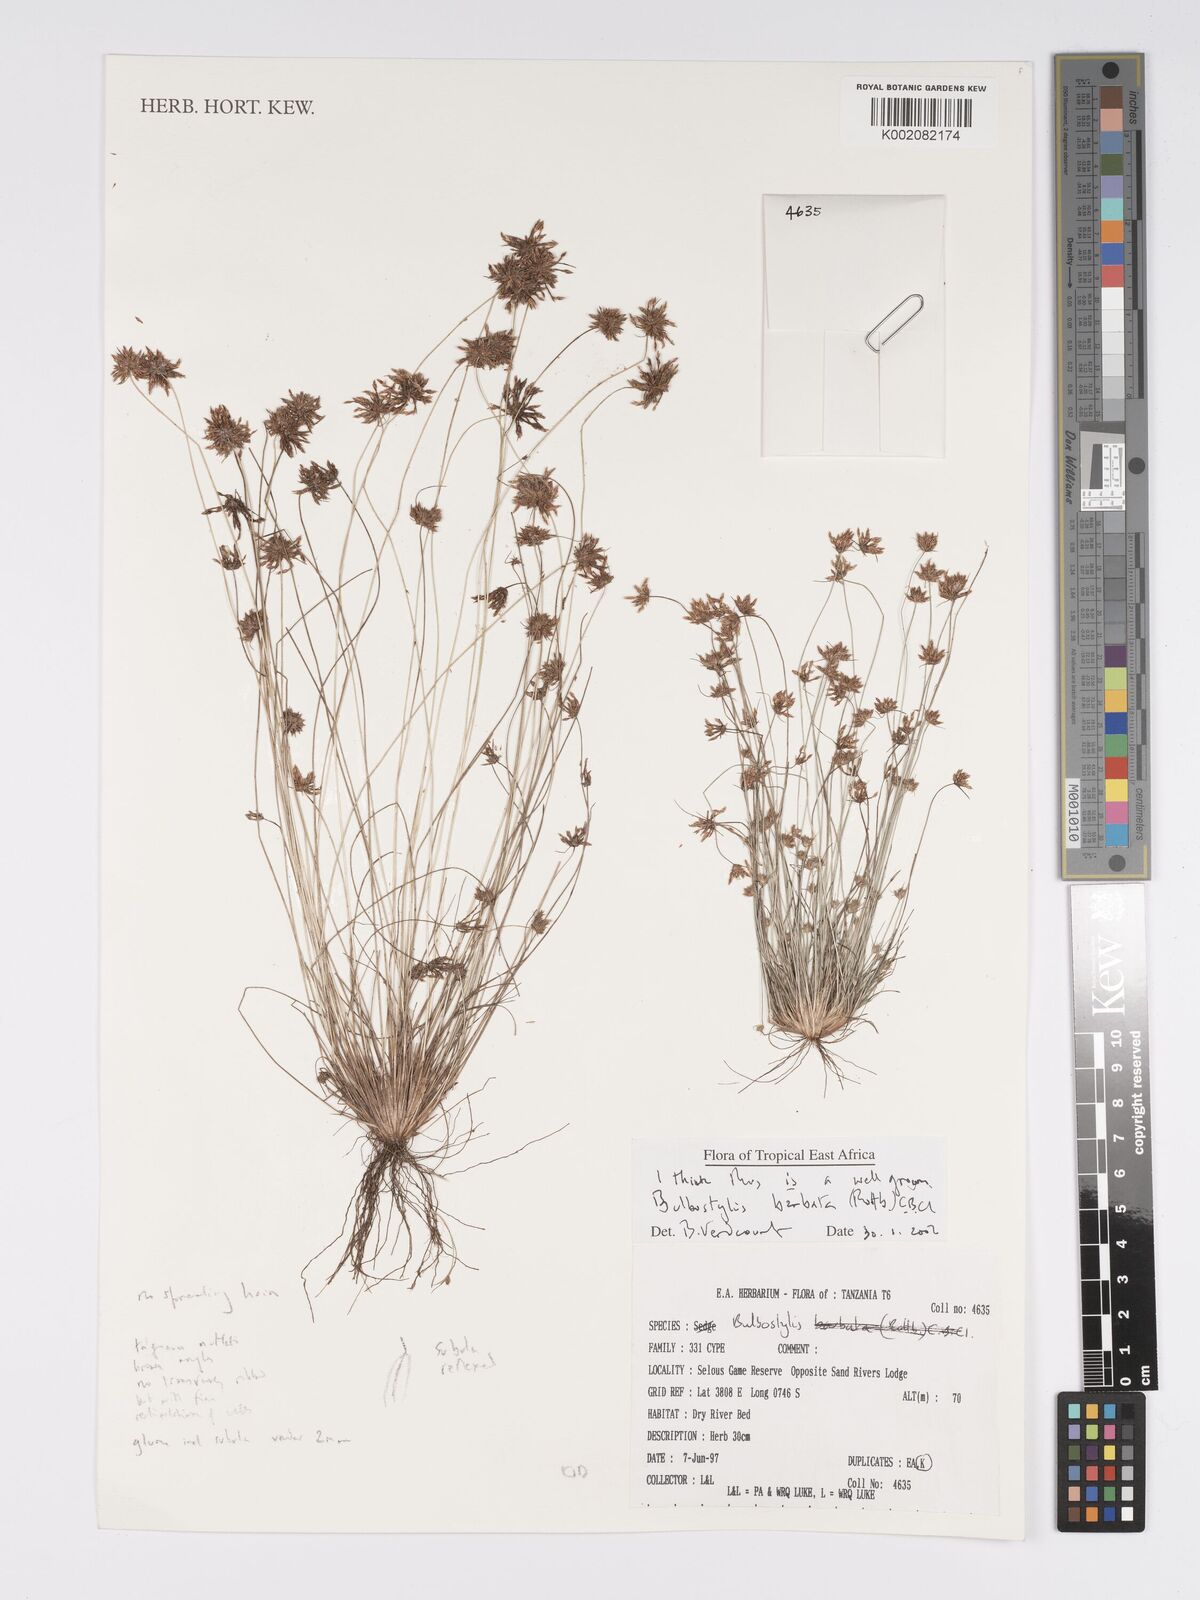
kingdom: Plantae
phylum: Tracheophyta
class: Liliopsida
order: Poales
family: Cyperaceae
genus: Bulbostylis
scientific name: Bulbostylis barbata
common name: Watergrass
